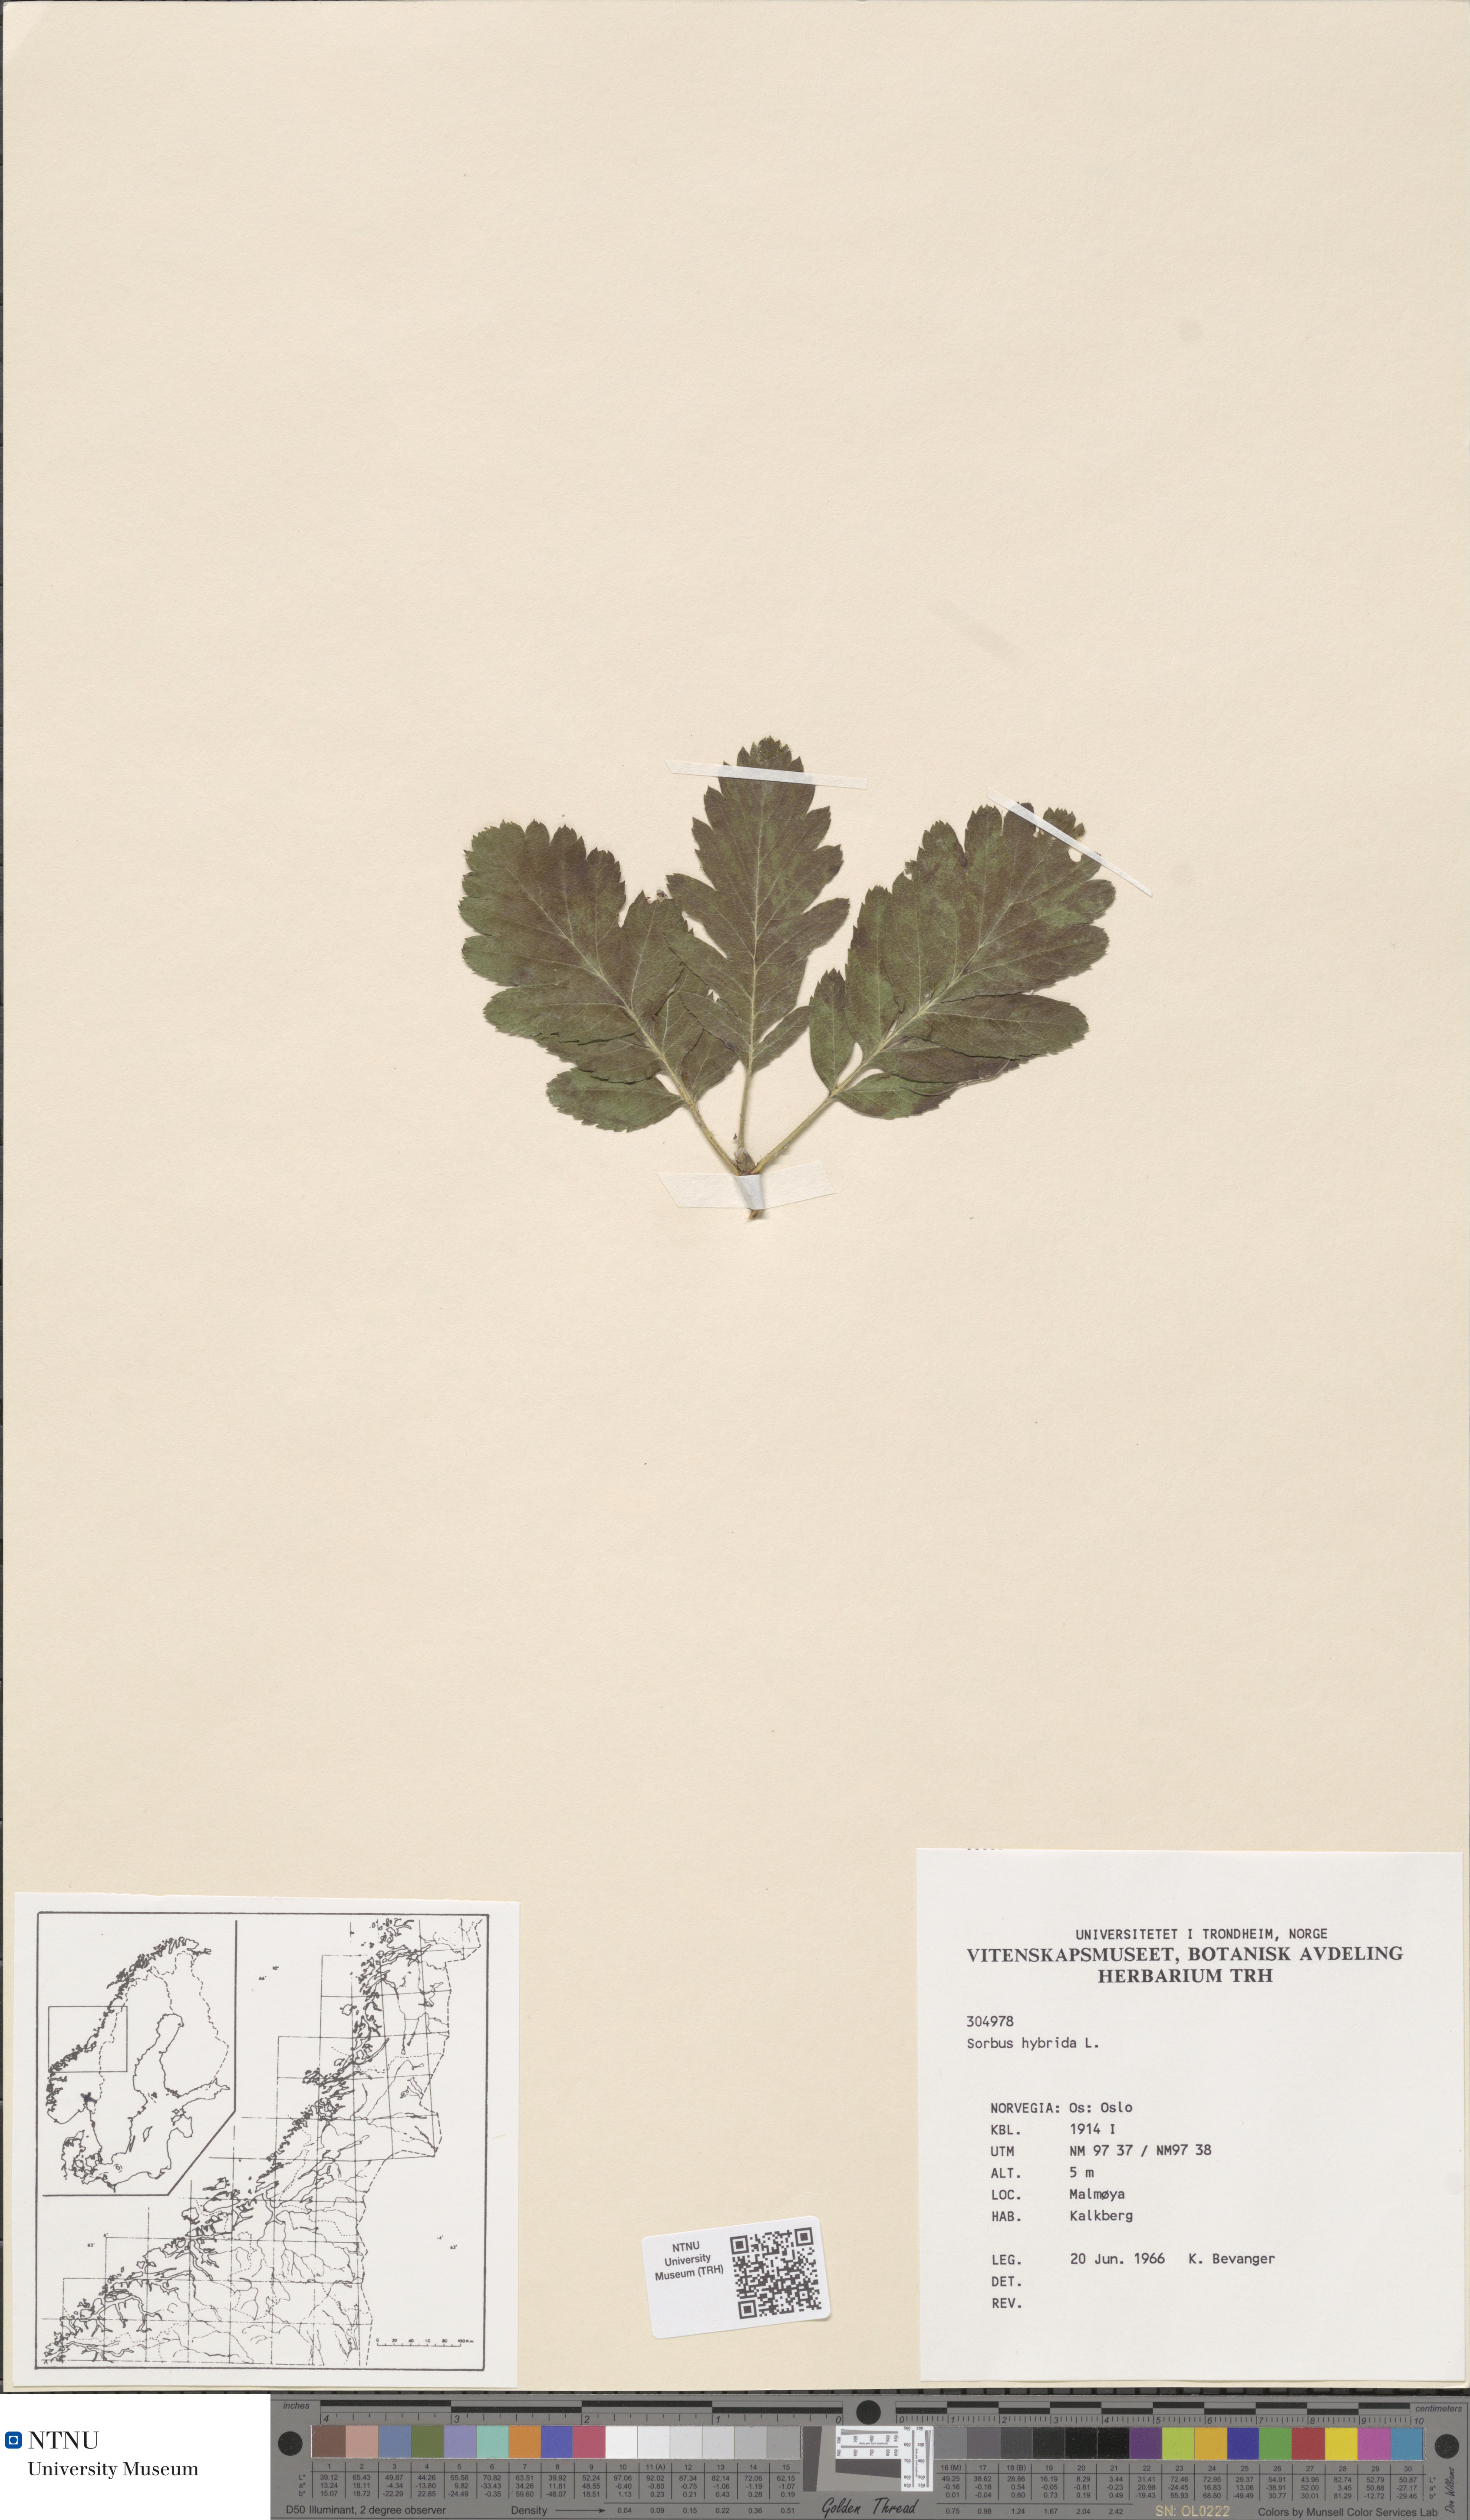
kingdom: Plantae
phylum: Tracheophyta
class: Magnoliopsida
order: Rosales
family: Rosaceae
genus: Hedlundia
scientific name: Hedlundia hybrida
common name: Swedish service-tree
